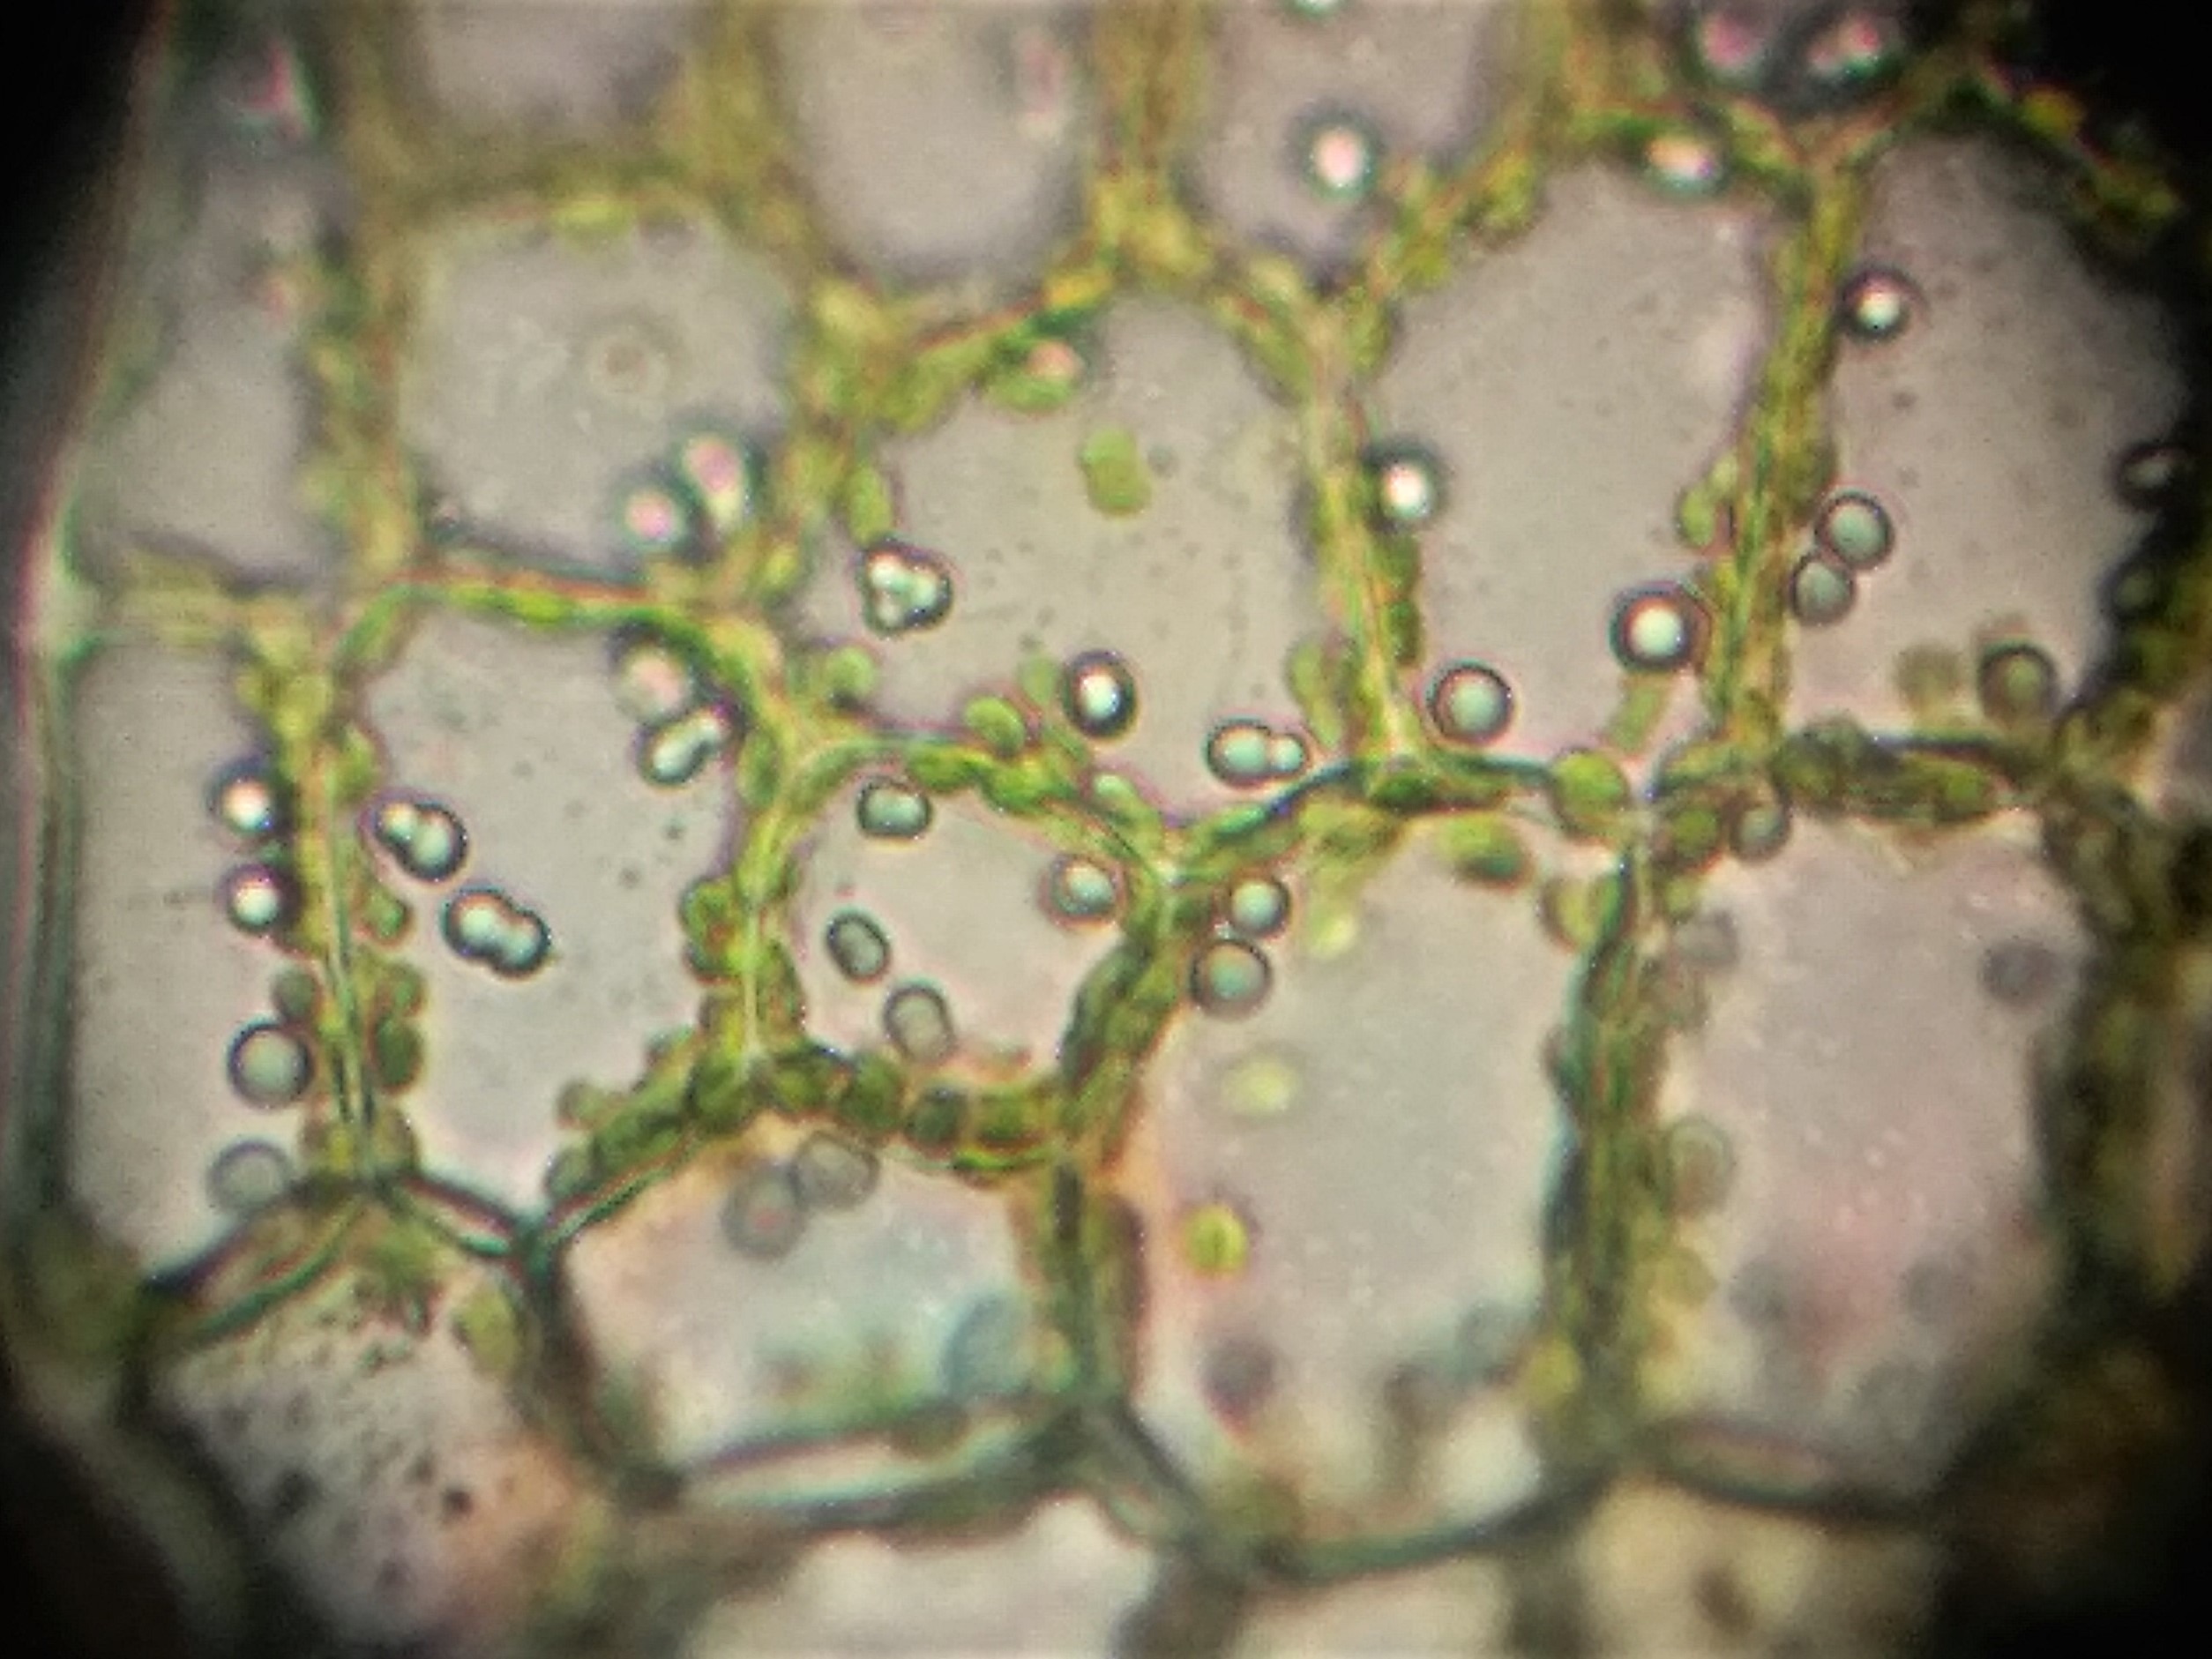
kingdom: Plantae
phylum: Marchantiophyta
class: Jungermanniopsida
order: Jungermanniales
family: Calypogeiaceae
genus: Calypogeia
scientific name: Calypogeia sphagnicola
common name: Mose-sækmos
